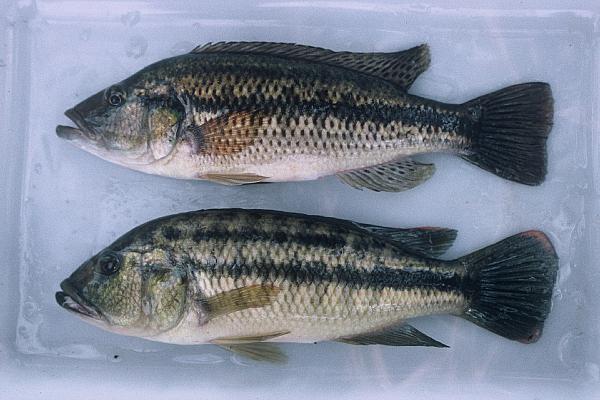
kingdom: Animalia
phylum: Chordata
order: Perciformes
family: Cichlidae
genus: Serranochromis
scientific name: Serranochromis robustus
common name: Yellow-belly bream
